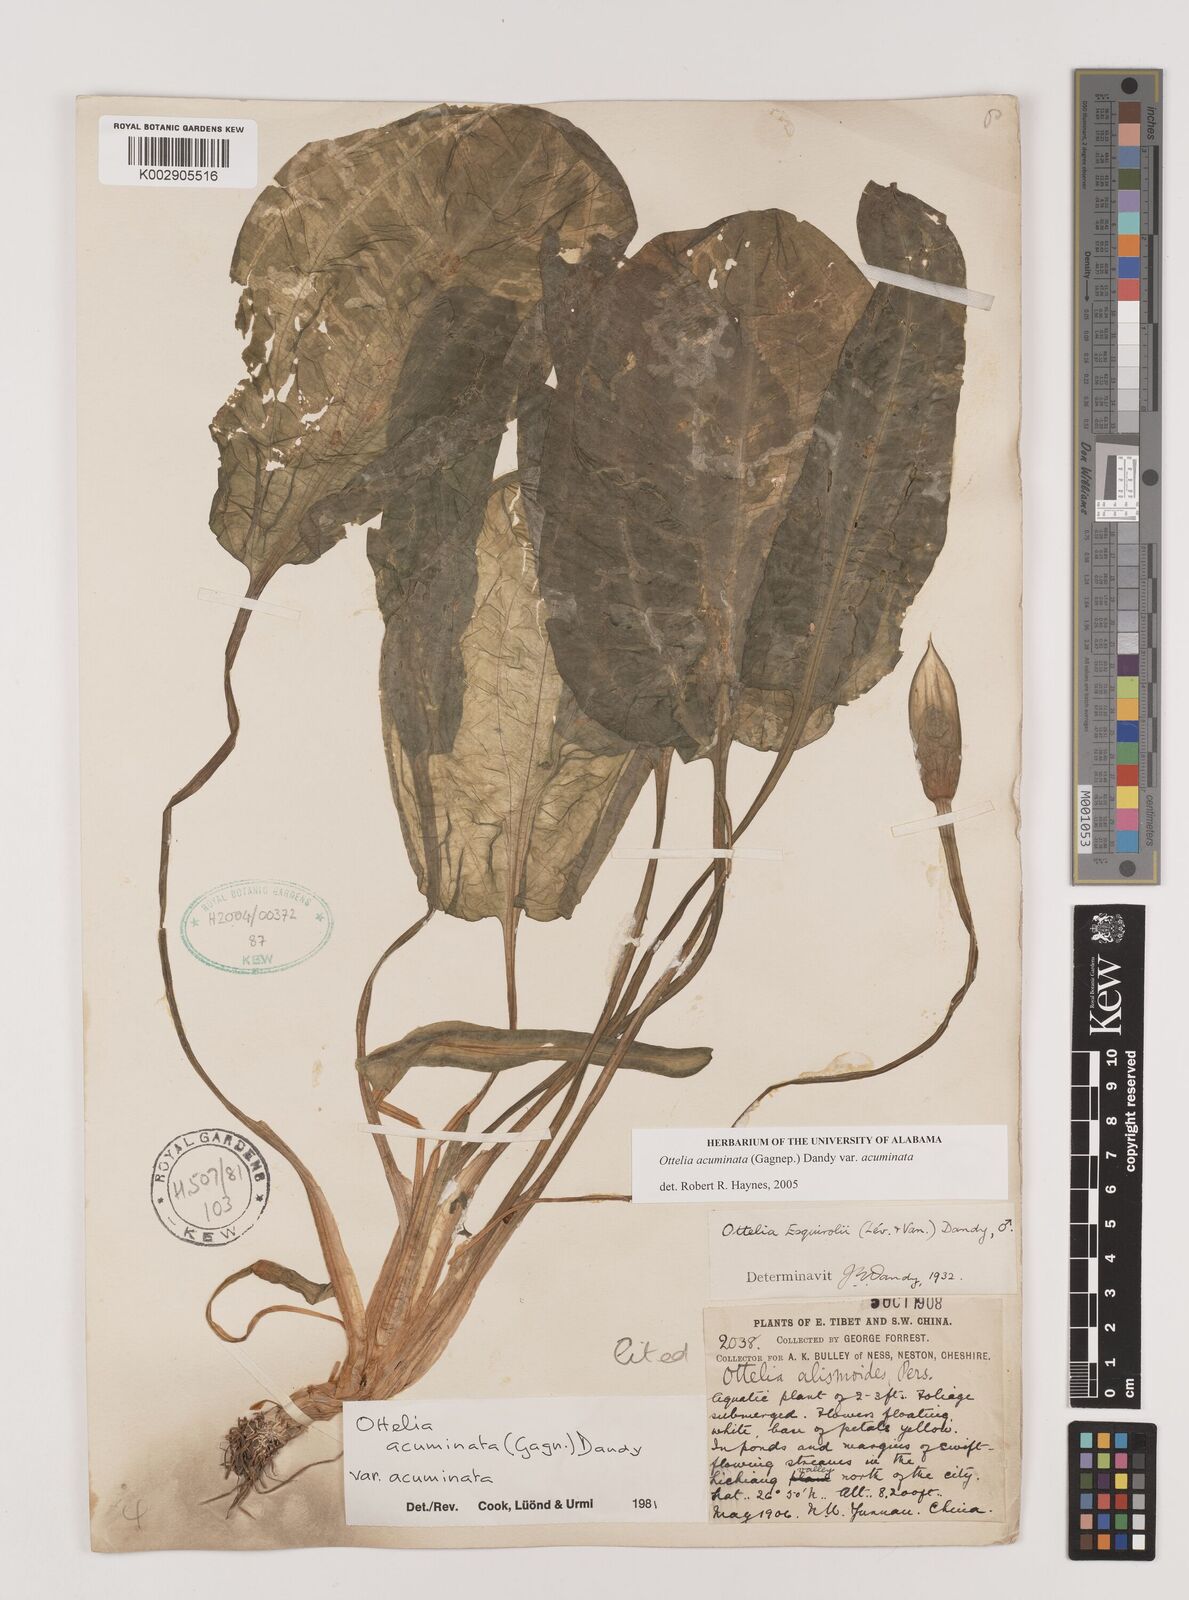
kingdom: Plantae
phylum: Tracheophyta
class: Liliopsida
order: Alismatales
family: Hydrocharitaceae
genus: Ottelia
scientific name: Ottelia acuminata
